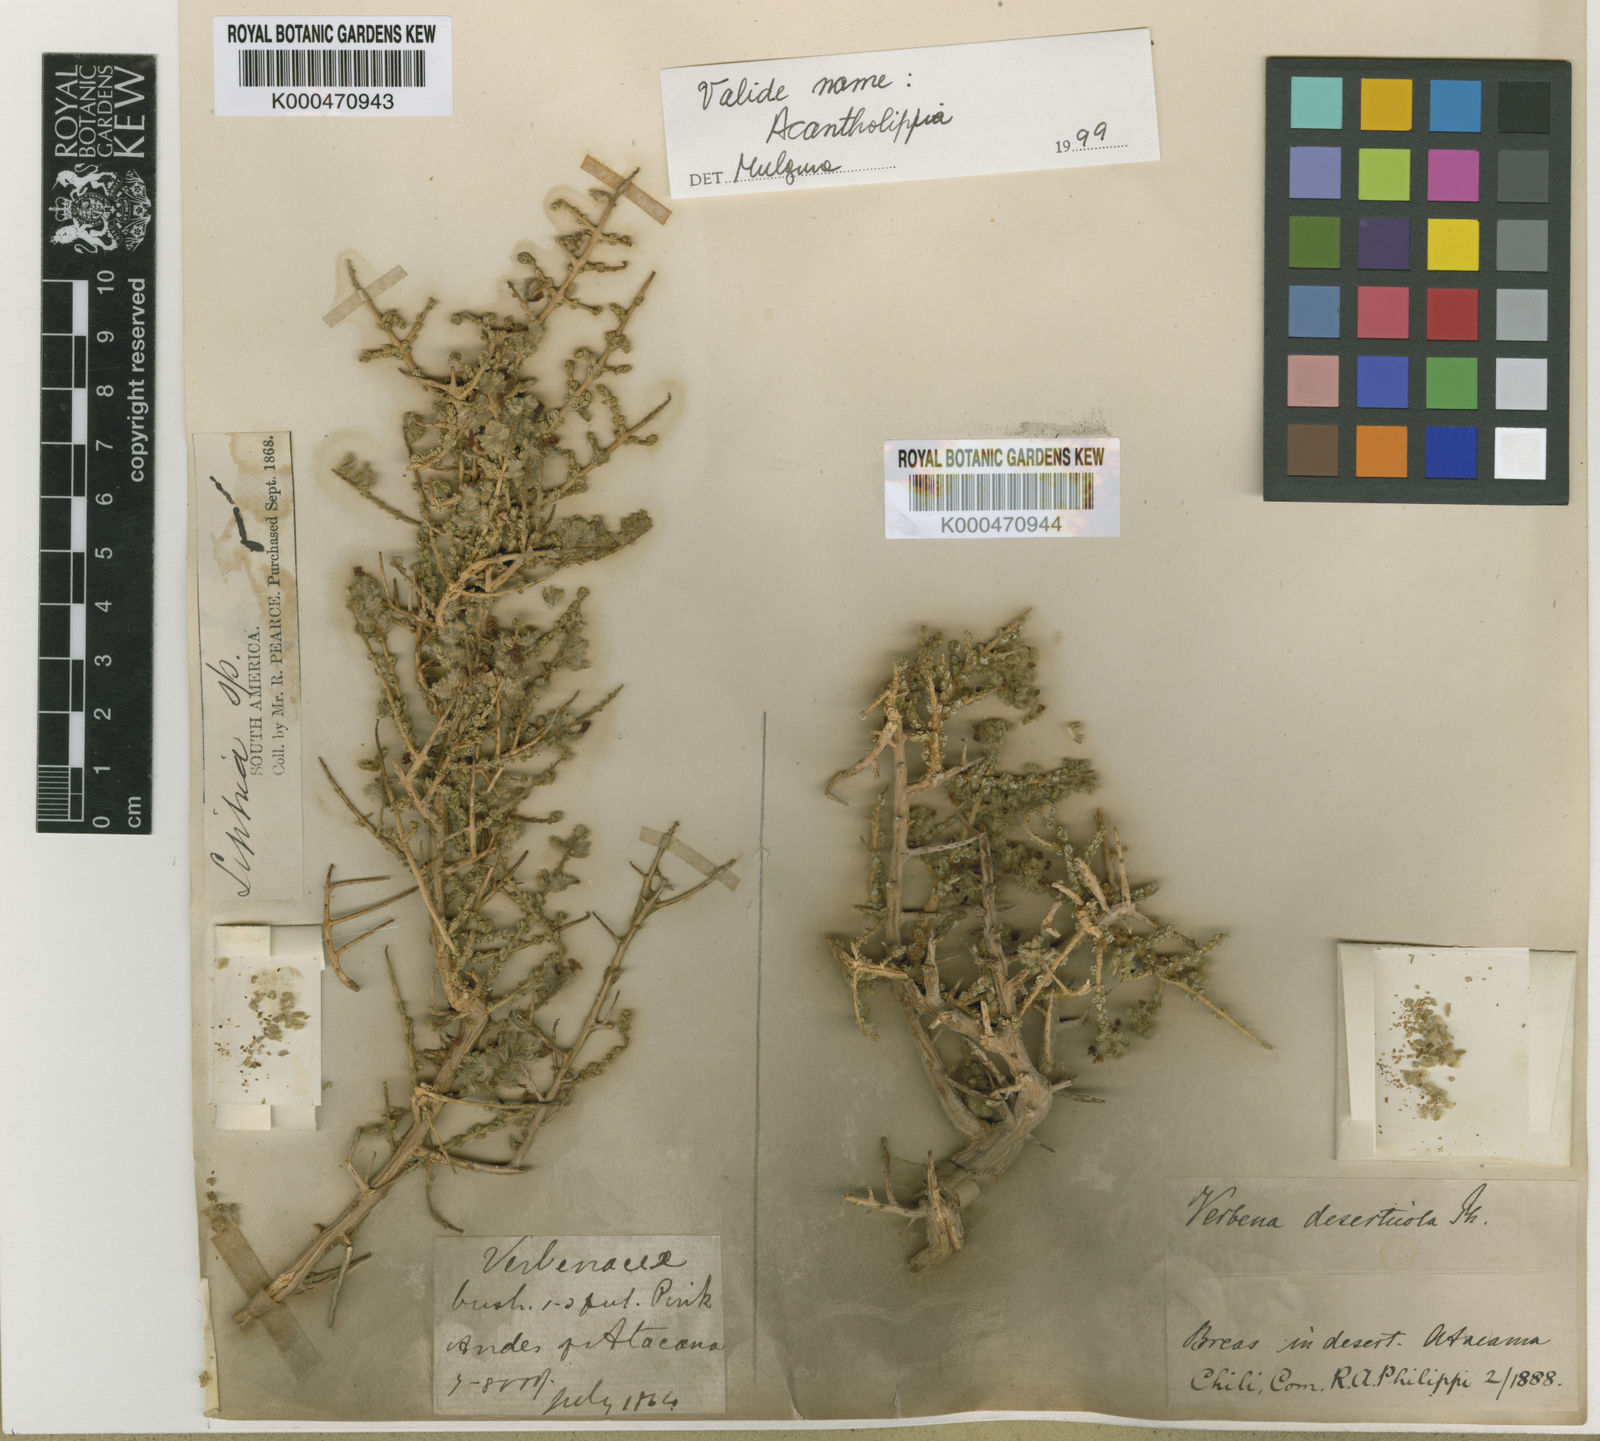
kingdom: Plantae
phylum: Tracheophyta
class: Magnoliopsida
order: Lamiales
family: Verbenaceae
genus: Aloysia
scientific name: Aloysia deserticola
